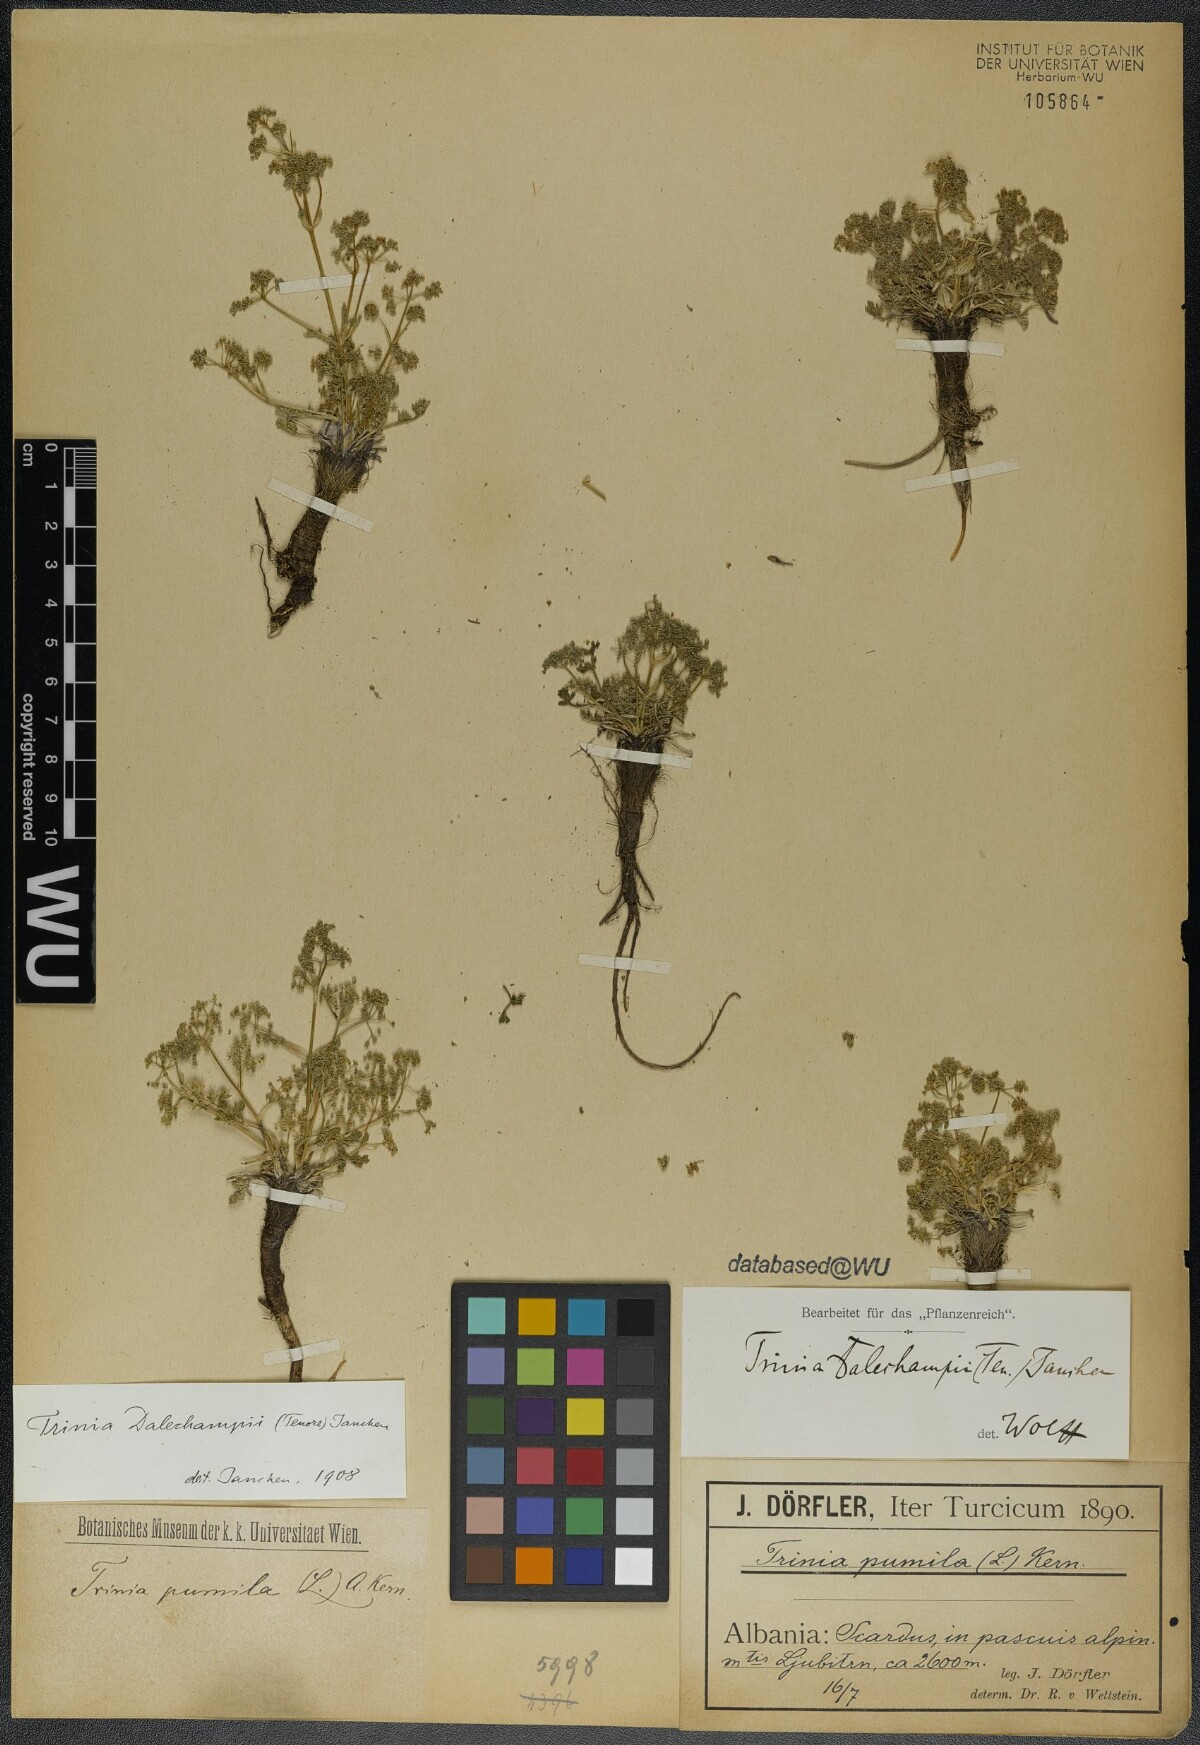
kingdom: Plantae
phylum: Tracheophyta
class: Magnoliopsida
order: Apiales
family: Apiaceae
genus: Trinia
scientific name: Trinia dalechampii
